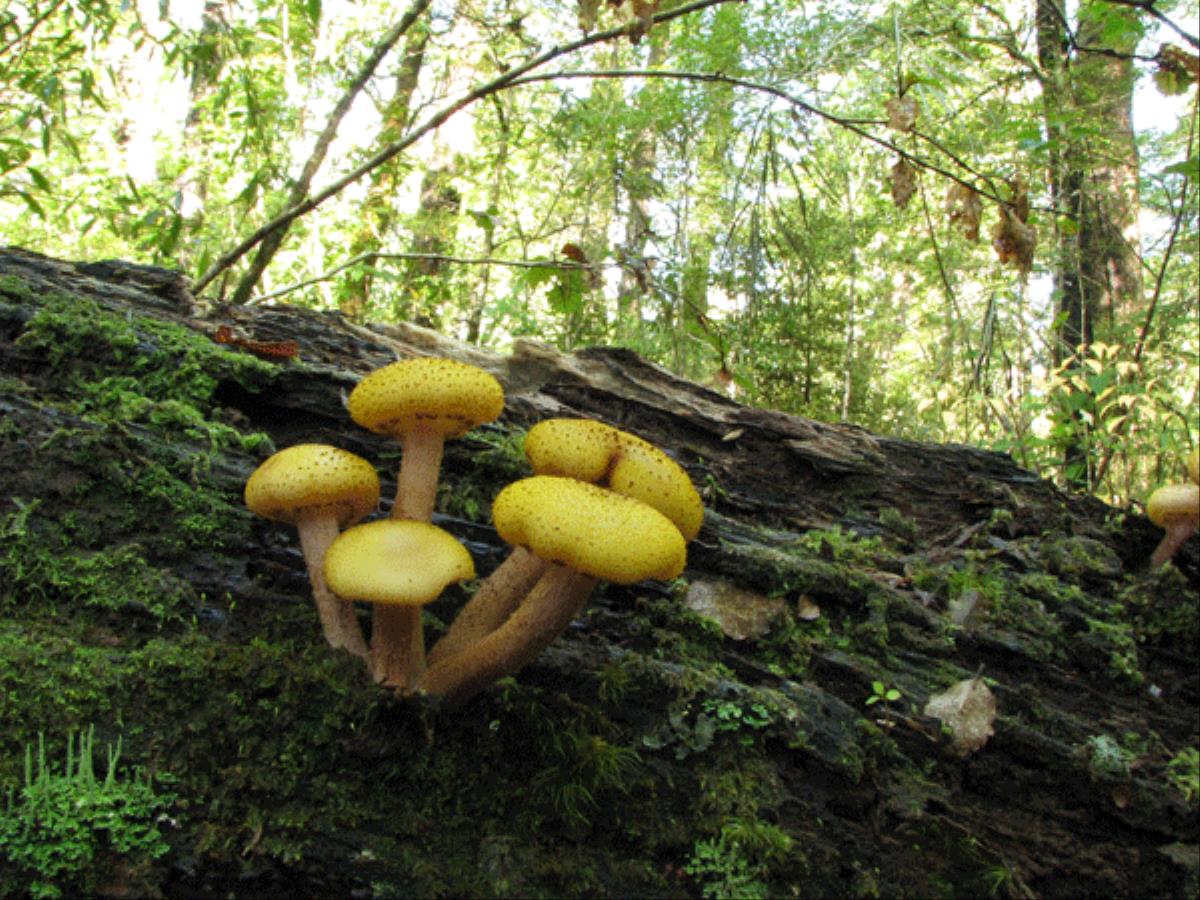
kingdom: Fungi
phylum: Basidiomycota
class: Agaricomycetes
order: Agaricales
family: Physalacriaceae
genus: Armillaria
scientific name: Armillaria limonea
